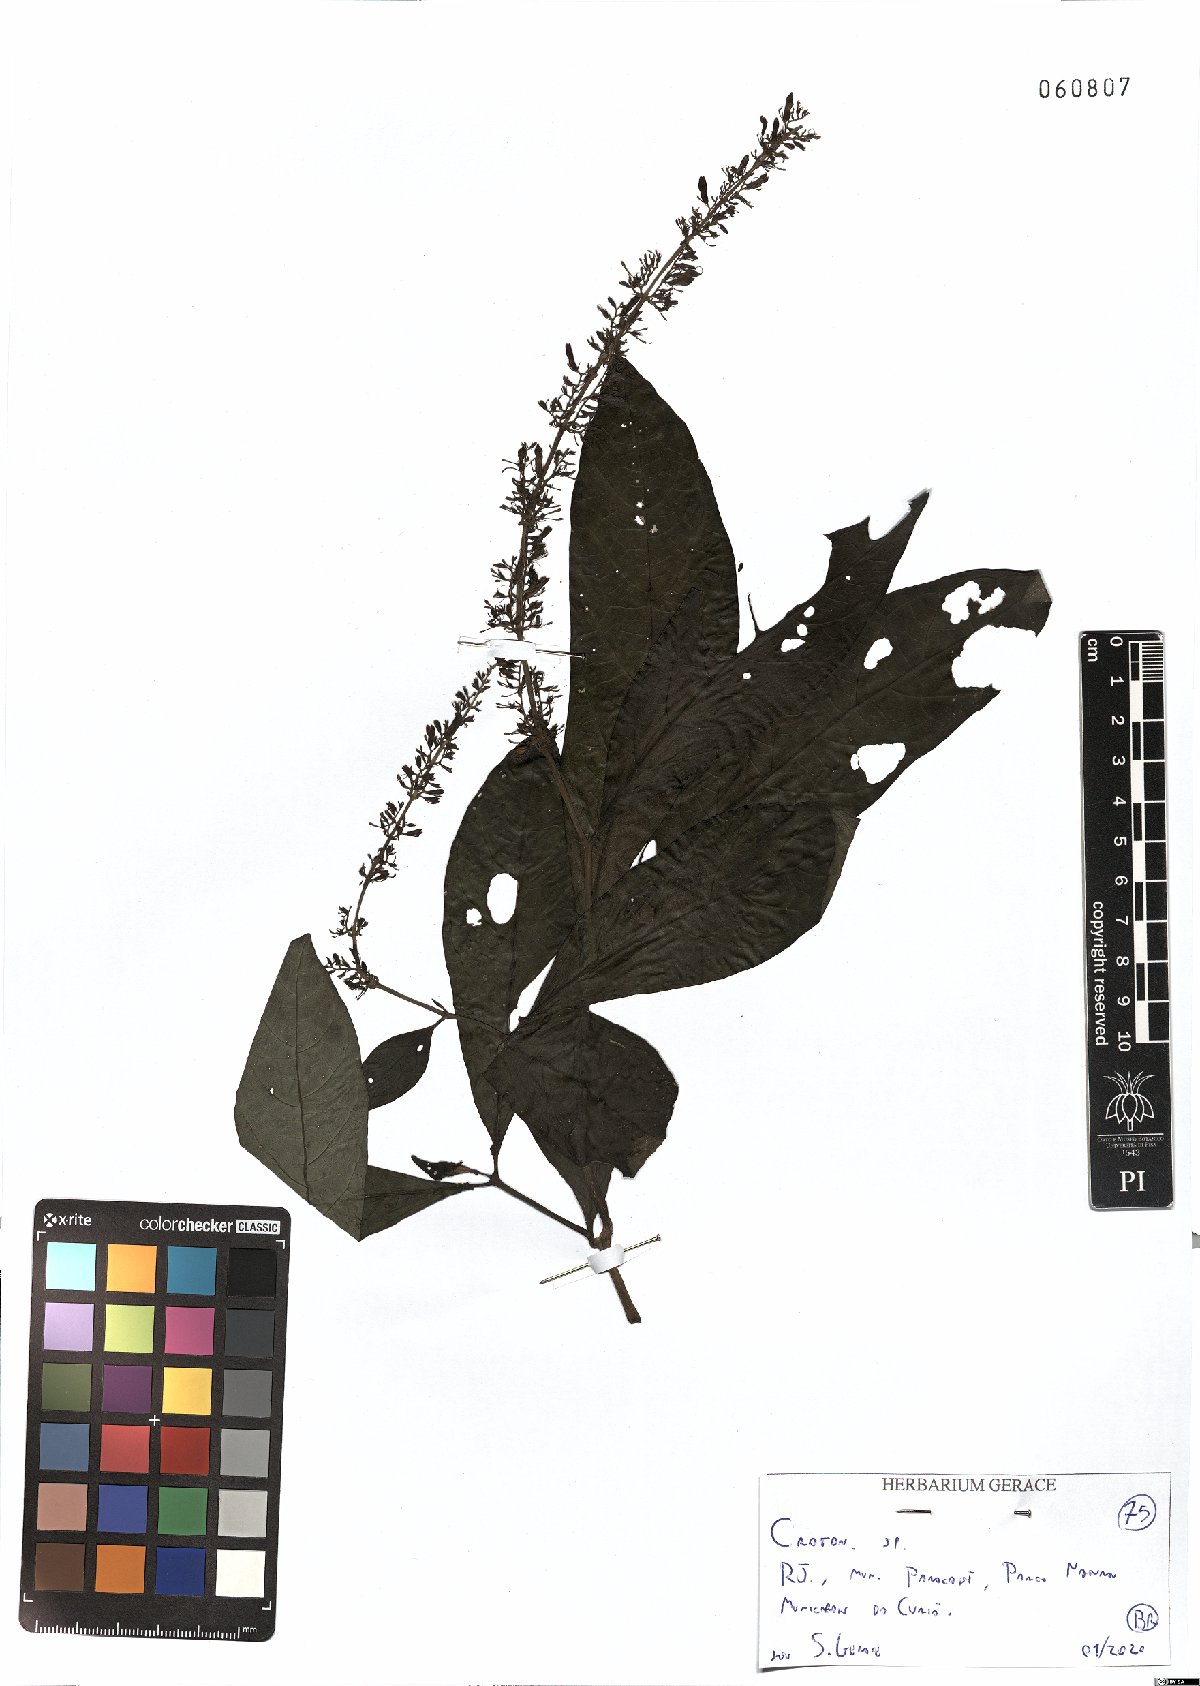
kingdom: Plantae
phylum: Tracheophyta
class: Magnoliopsida
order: Malpighiales
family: Euphorbiaceae
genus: Croton
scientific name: Croton
